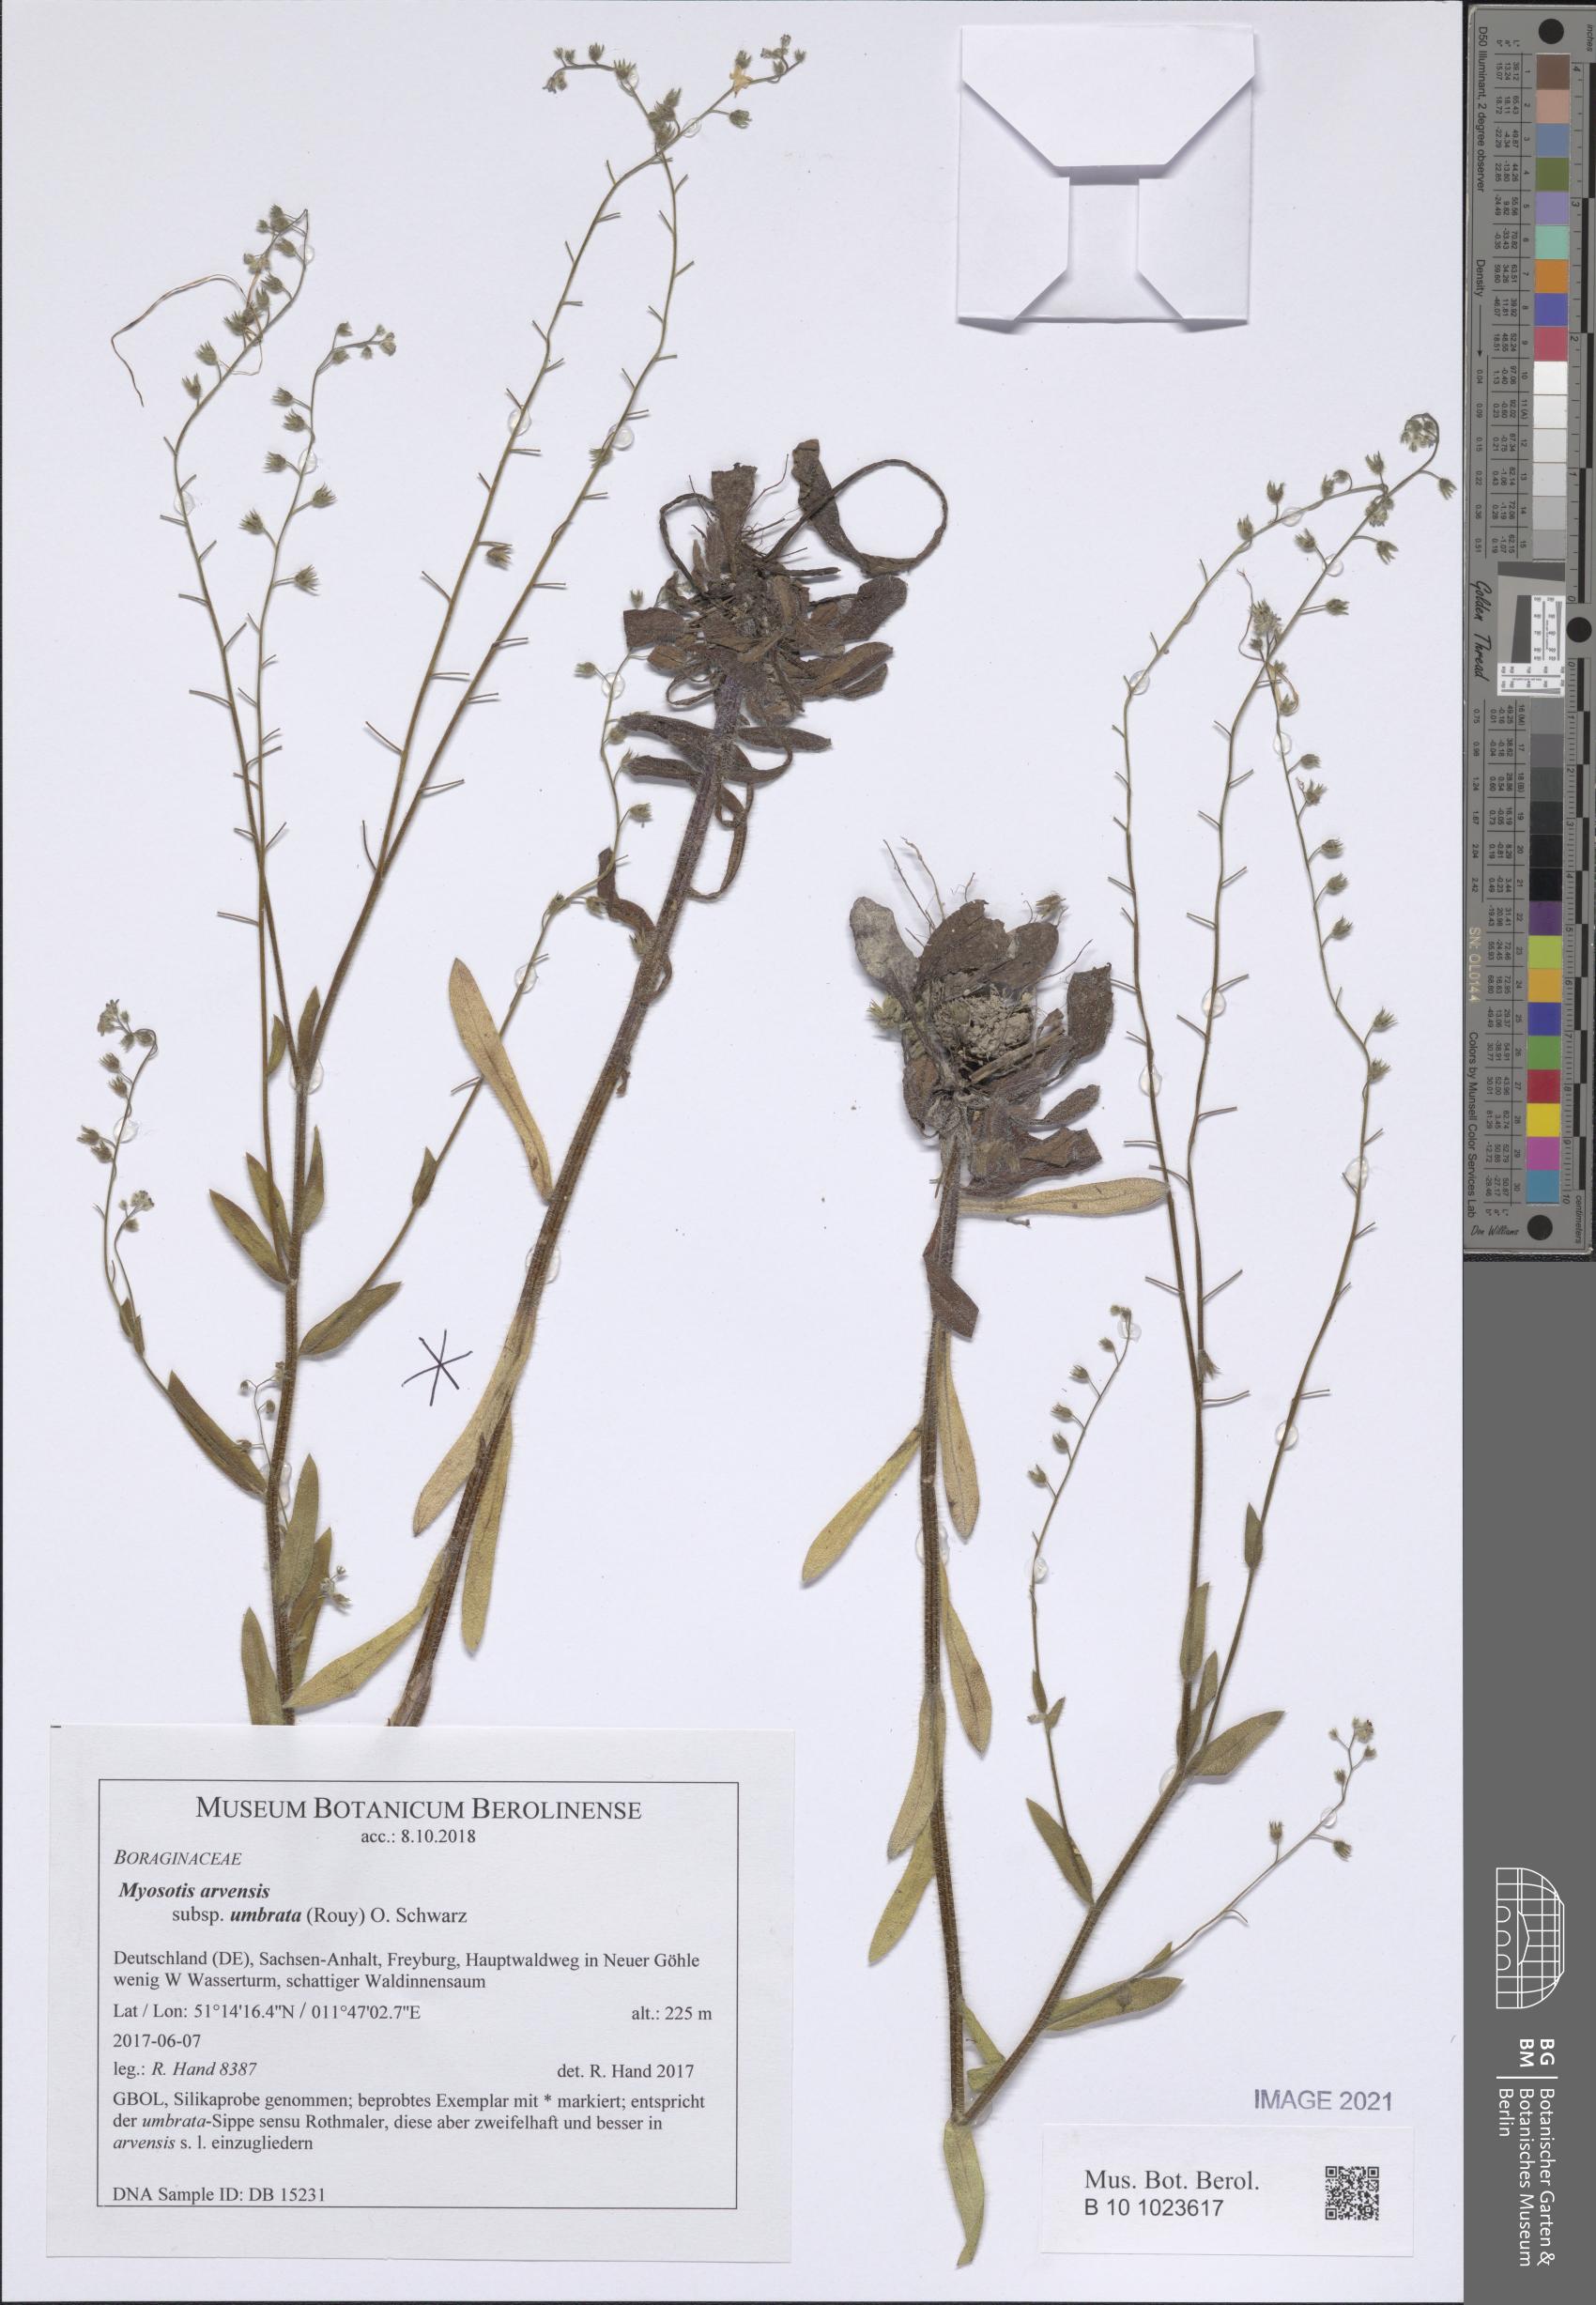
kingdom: Plantae
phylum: Tracheophyta
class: Magnoliopsida
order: Boraginales
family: Boraginaceae
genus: Myosotis
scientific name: Myosotis arvensis
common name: Field forget-me-not
